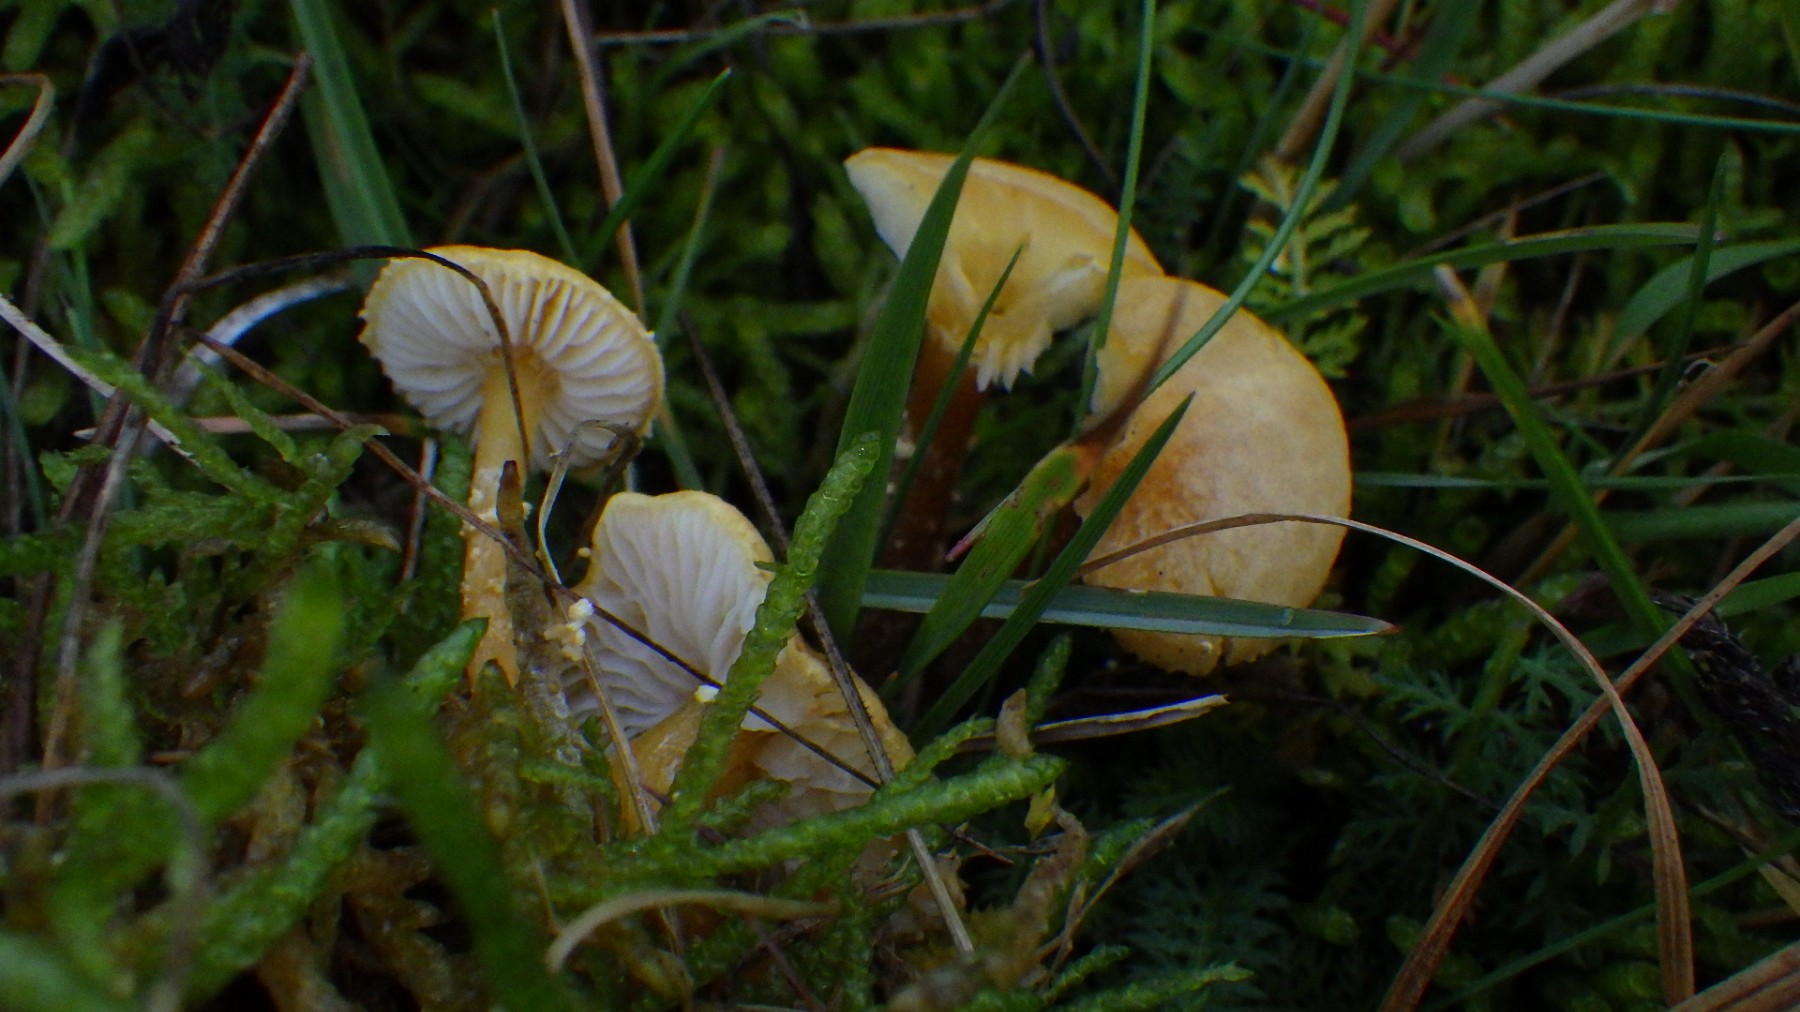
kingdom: Fungi
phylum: Basidiomycota
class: Agaricomycetes
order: Agaricales
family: Tricholomataceae
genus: Cystoderma
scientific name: Cystoderma amianthinum
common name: okkergul grynhat
